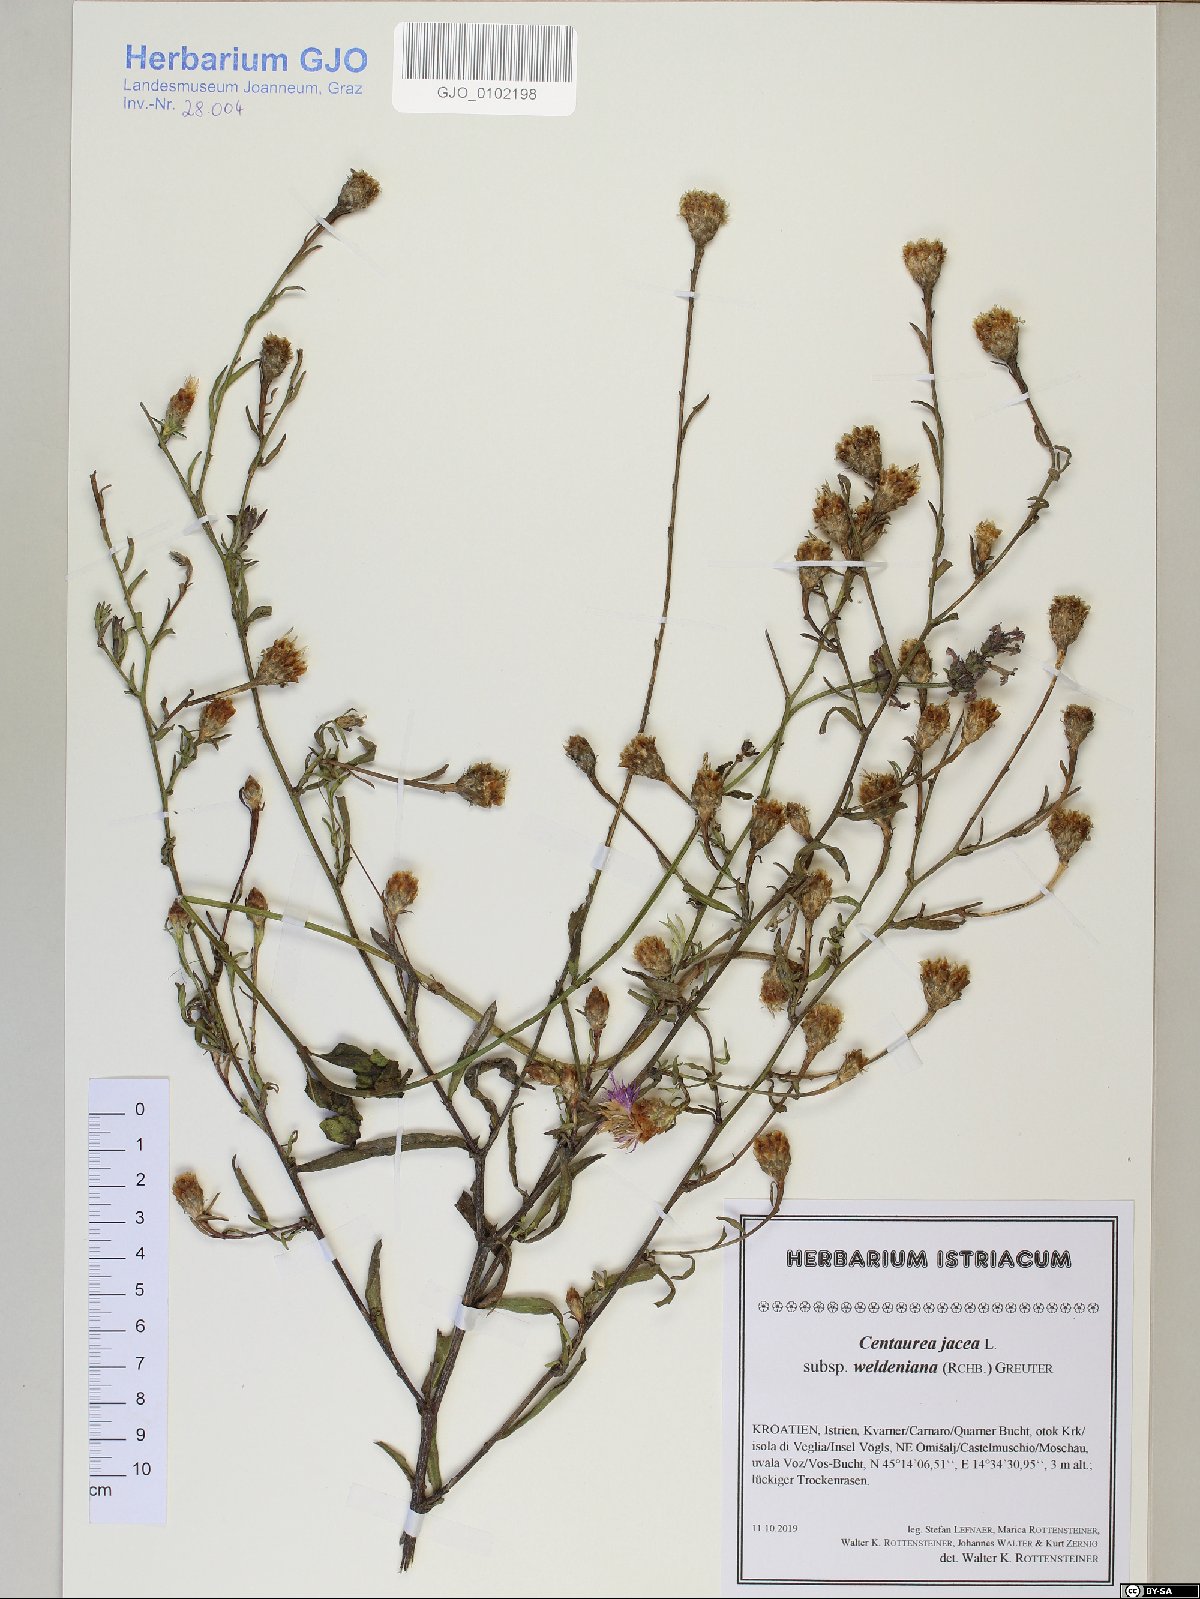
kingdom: Plantae
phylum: Tracheophyta
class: Magnoliopsida
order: Asterales
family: Asteraceae
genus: Centaurea
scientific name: Centaurea jacea
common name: Brown knapweed
